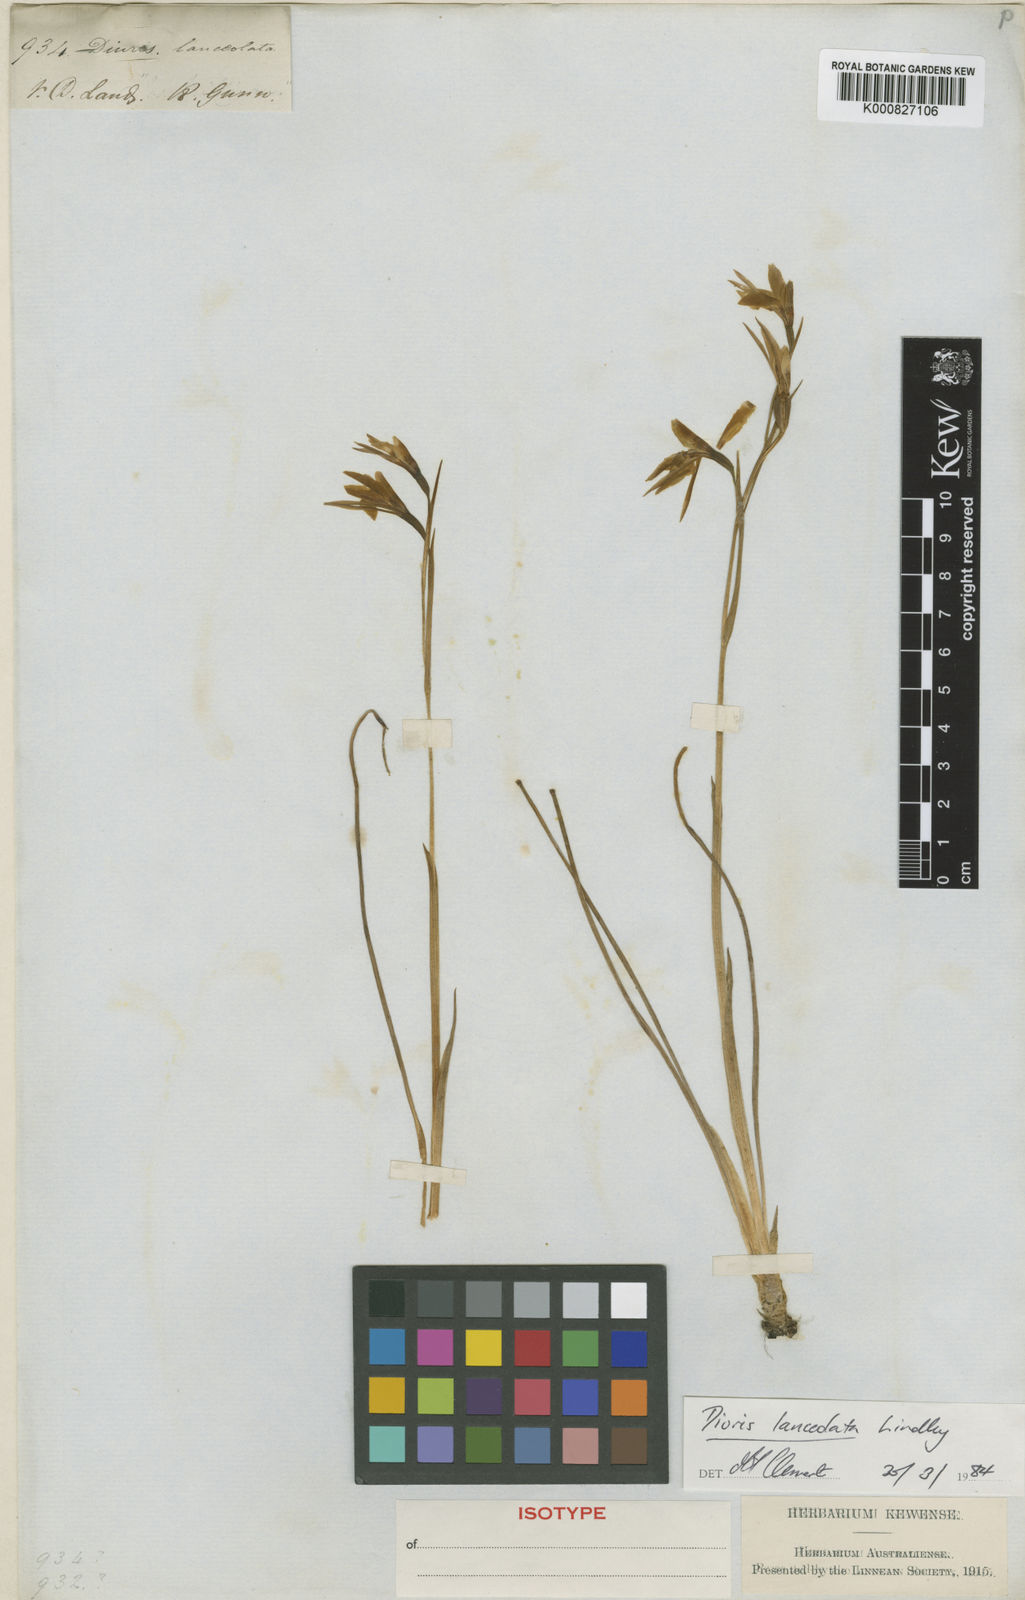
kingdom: Plantae
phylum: Tracheophyta
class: Liliopsida
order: Asparagales
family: Orchidaceae
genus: Diuris
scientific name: Diuris lanceolata
